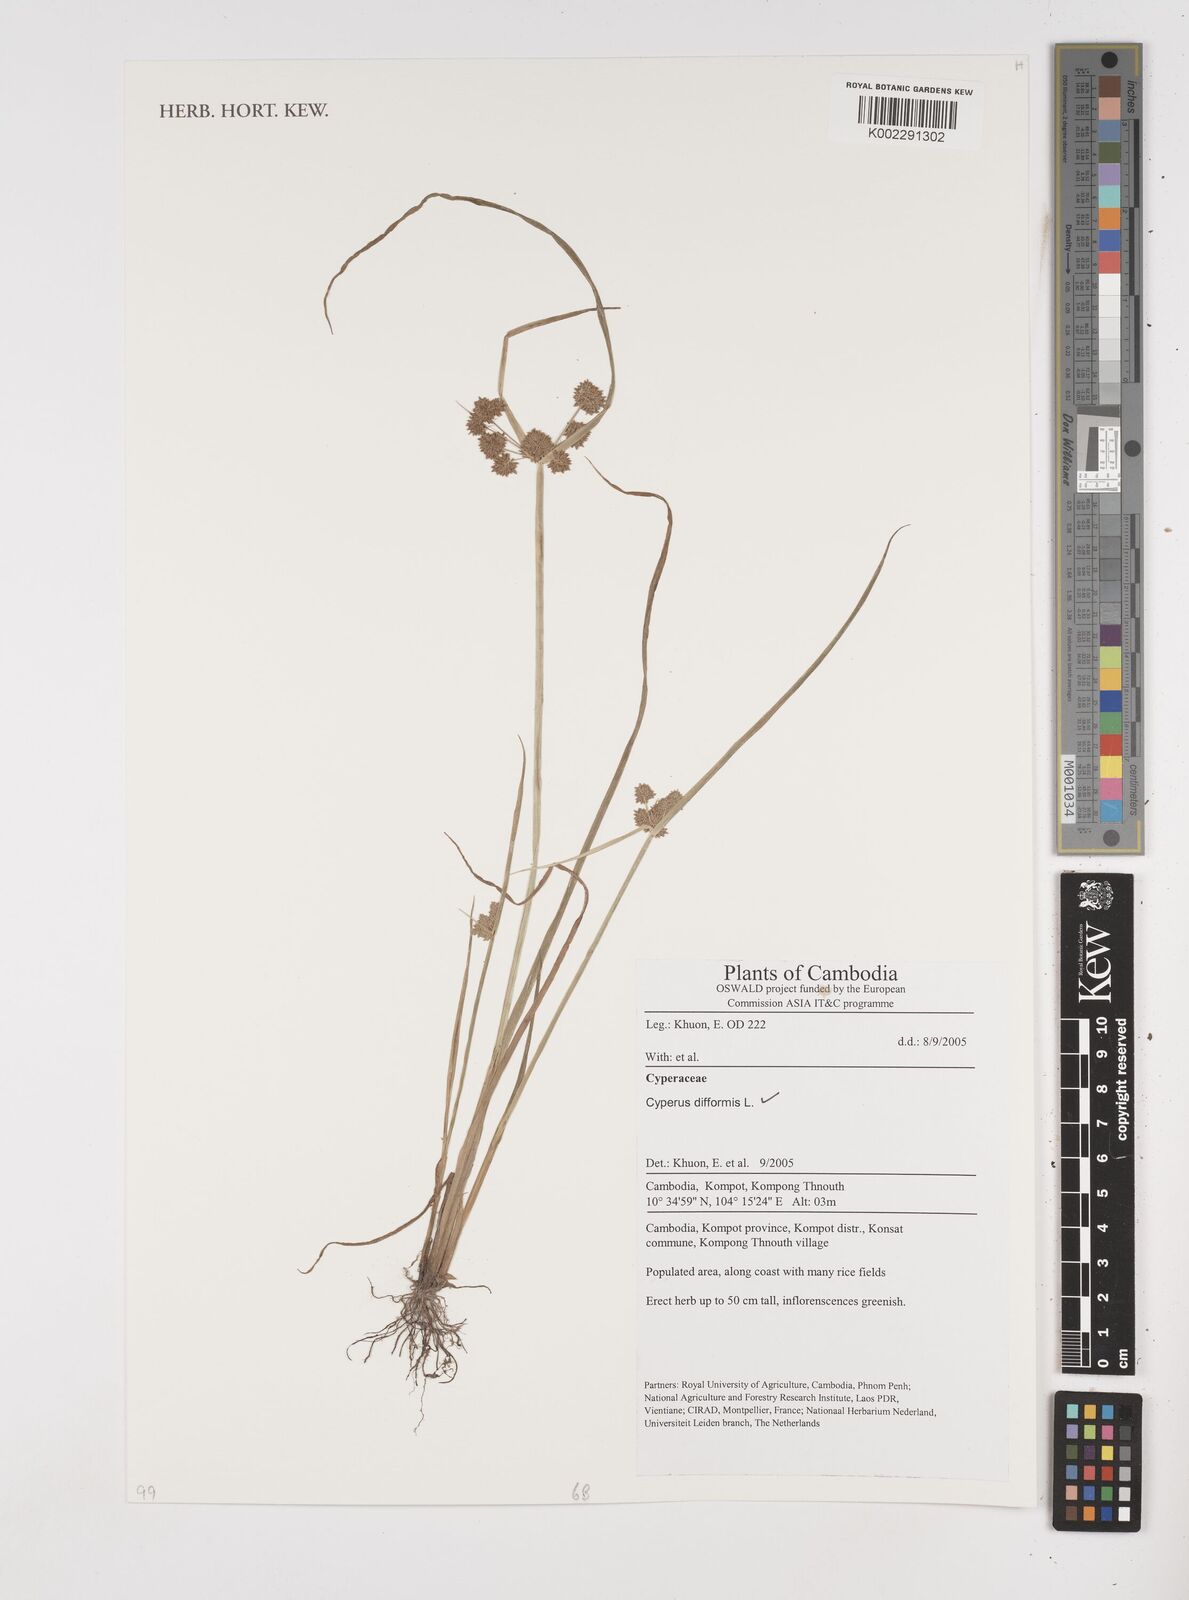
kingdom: Plantae
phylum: Tracheophyta
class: Liliopsida
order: Poales
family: Cyperaceae
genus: Cyperus
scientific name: Cyperus difformis
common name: Variable flatsedge
